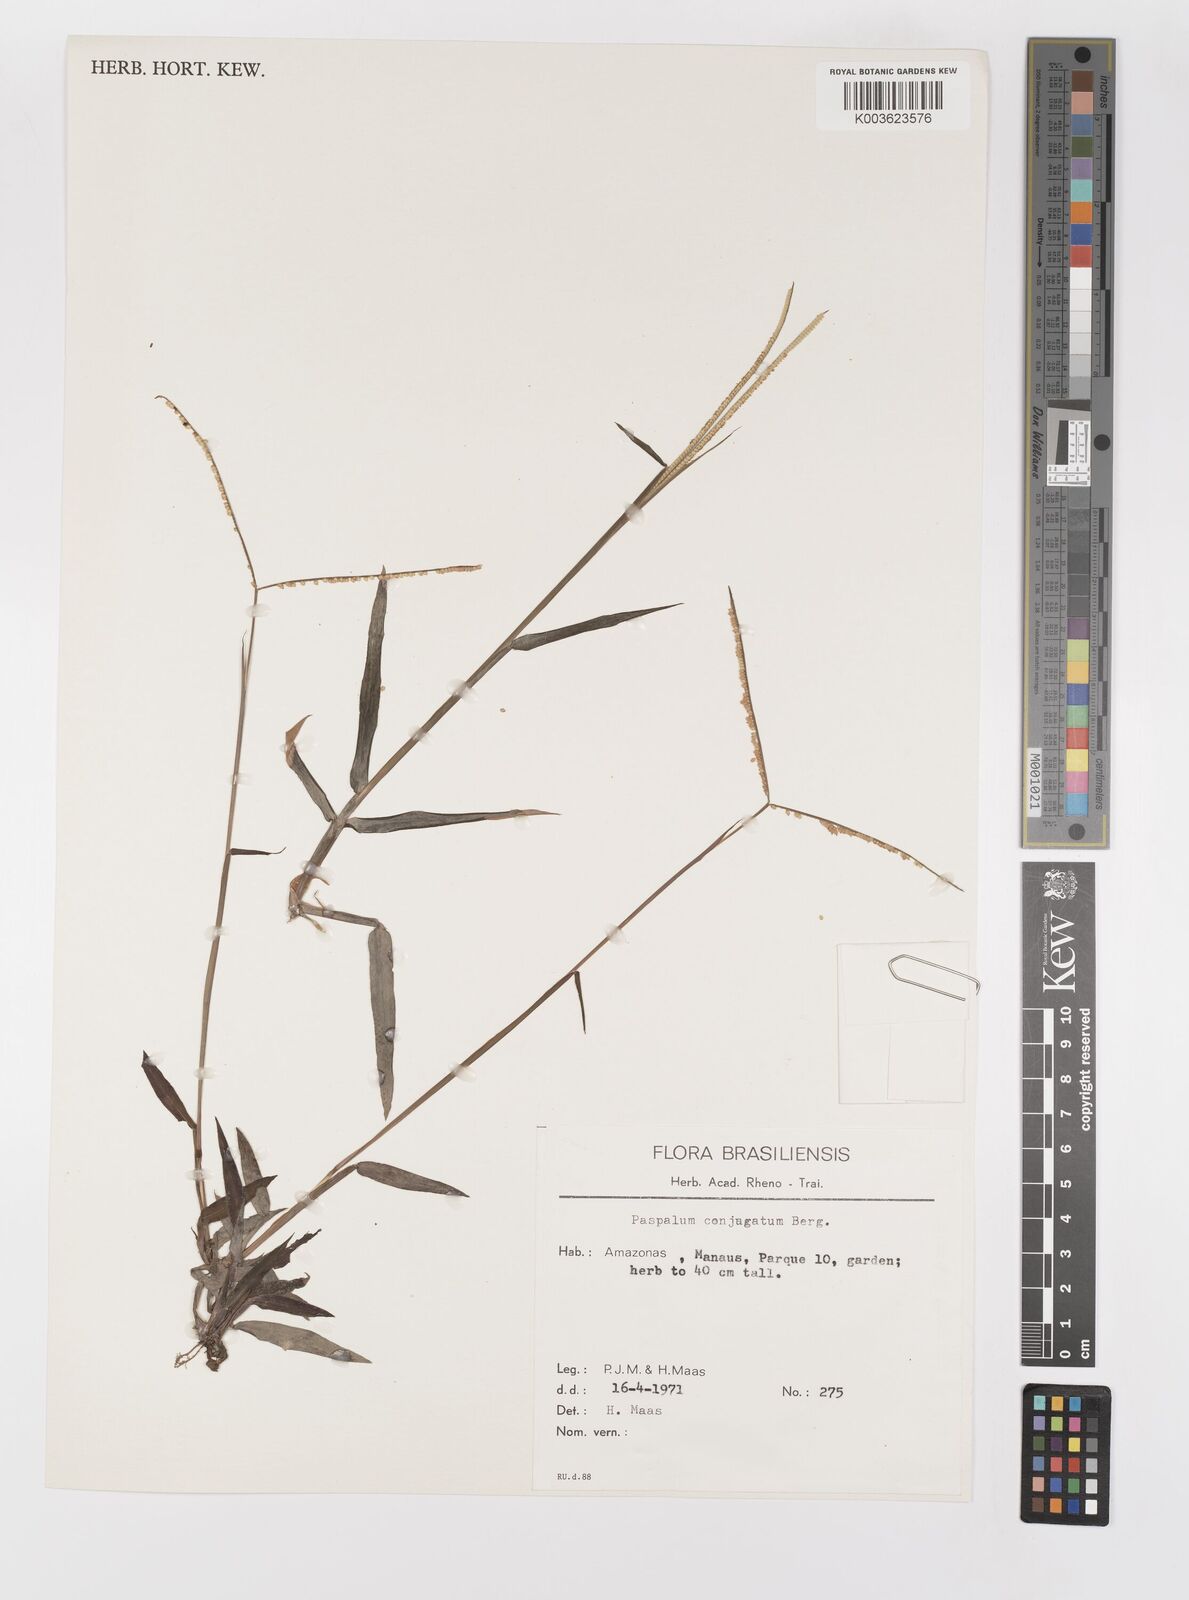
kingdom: Plantae
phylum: Tracheophyta
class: Liliopsida
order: Poales
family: Poaceae
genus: Paspalum
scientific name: Paspalum conjugatum
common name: Hilograss
